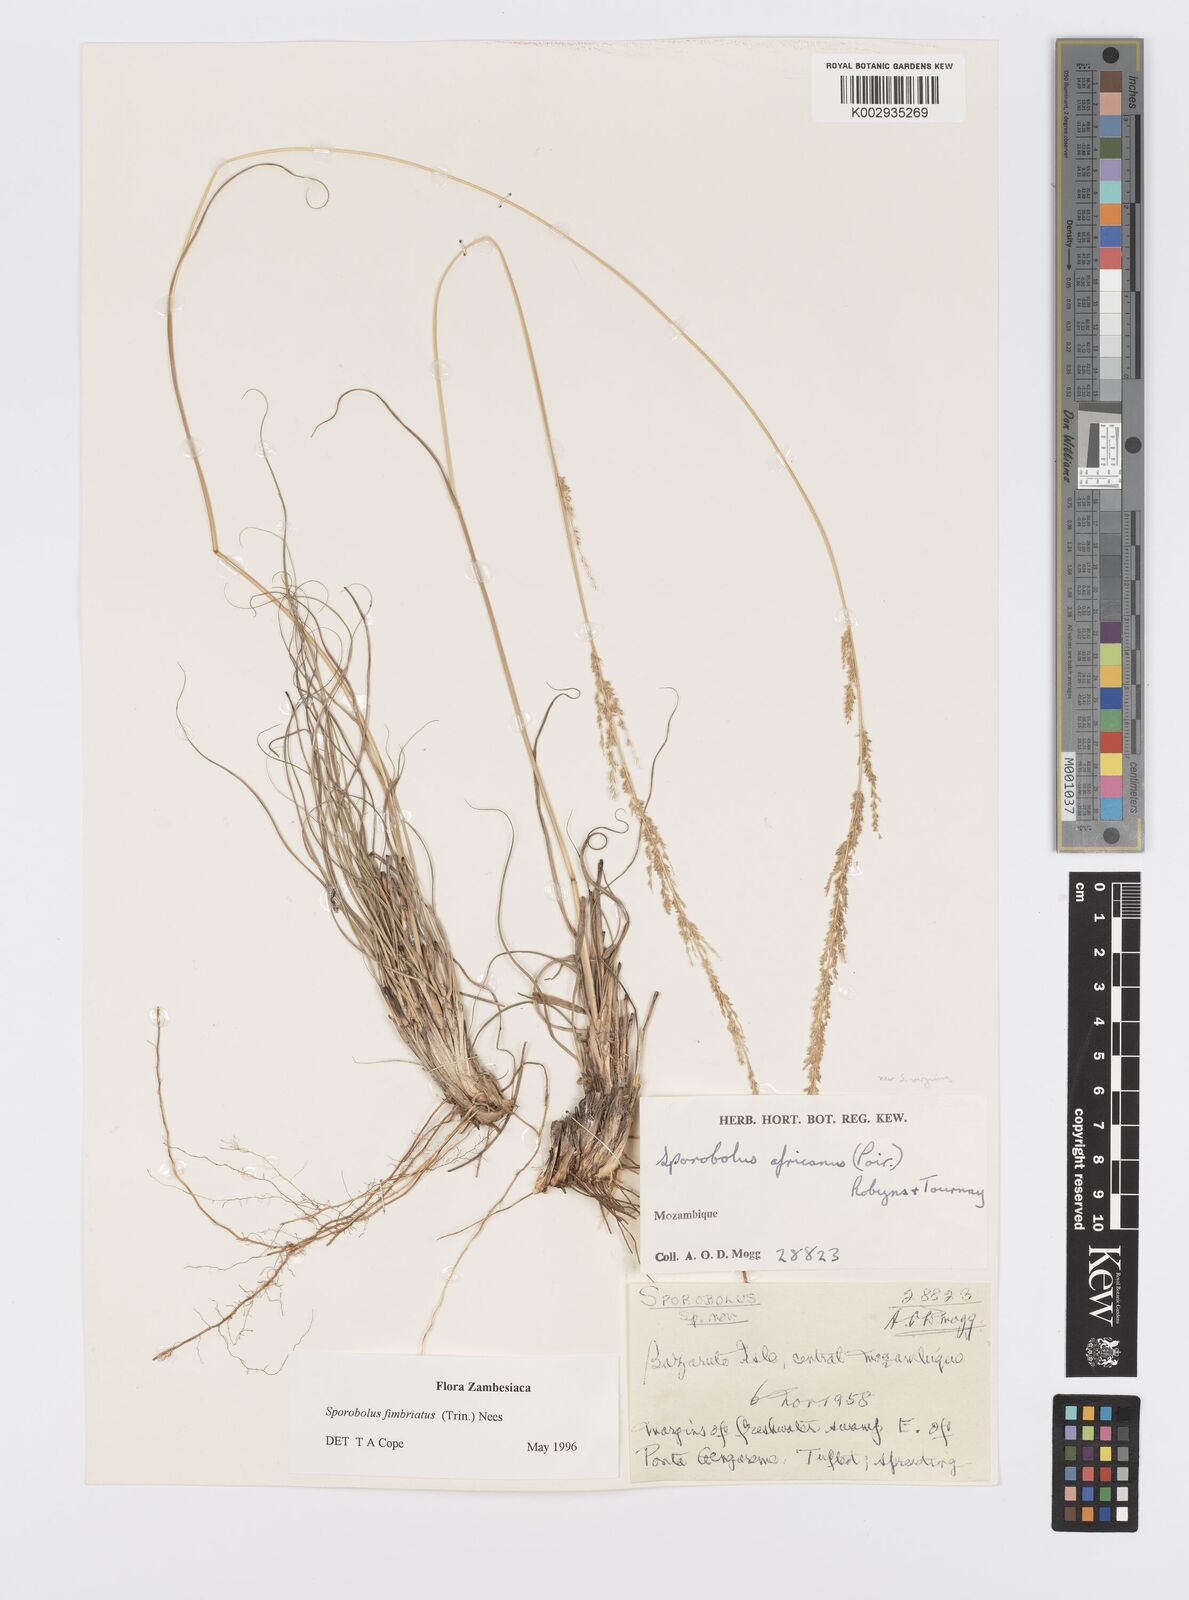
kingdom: Plantae
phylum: Tracheophyta
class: Liliopsida
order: Poales
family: Poaceae
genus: Sporobolus
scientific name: Sporobolus fimbriatus
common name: Fringed dropseed
